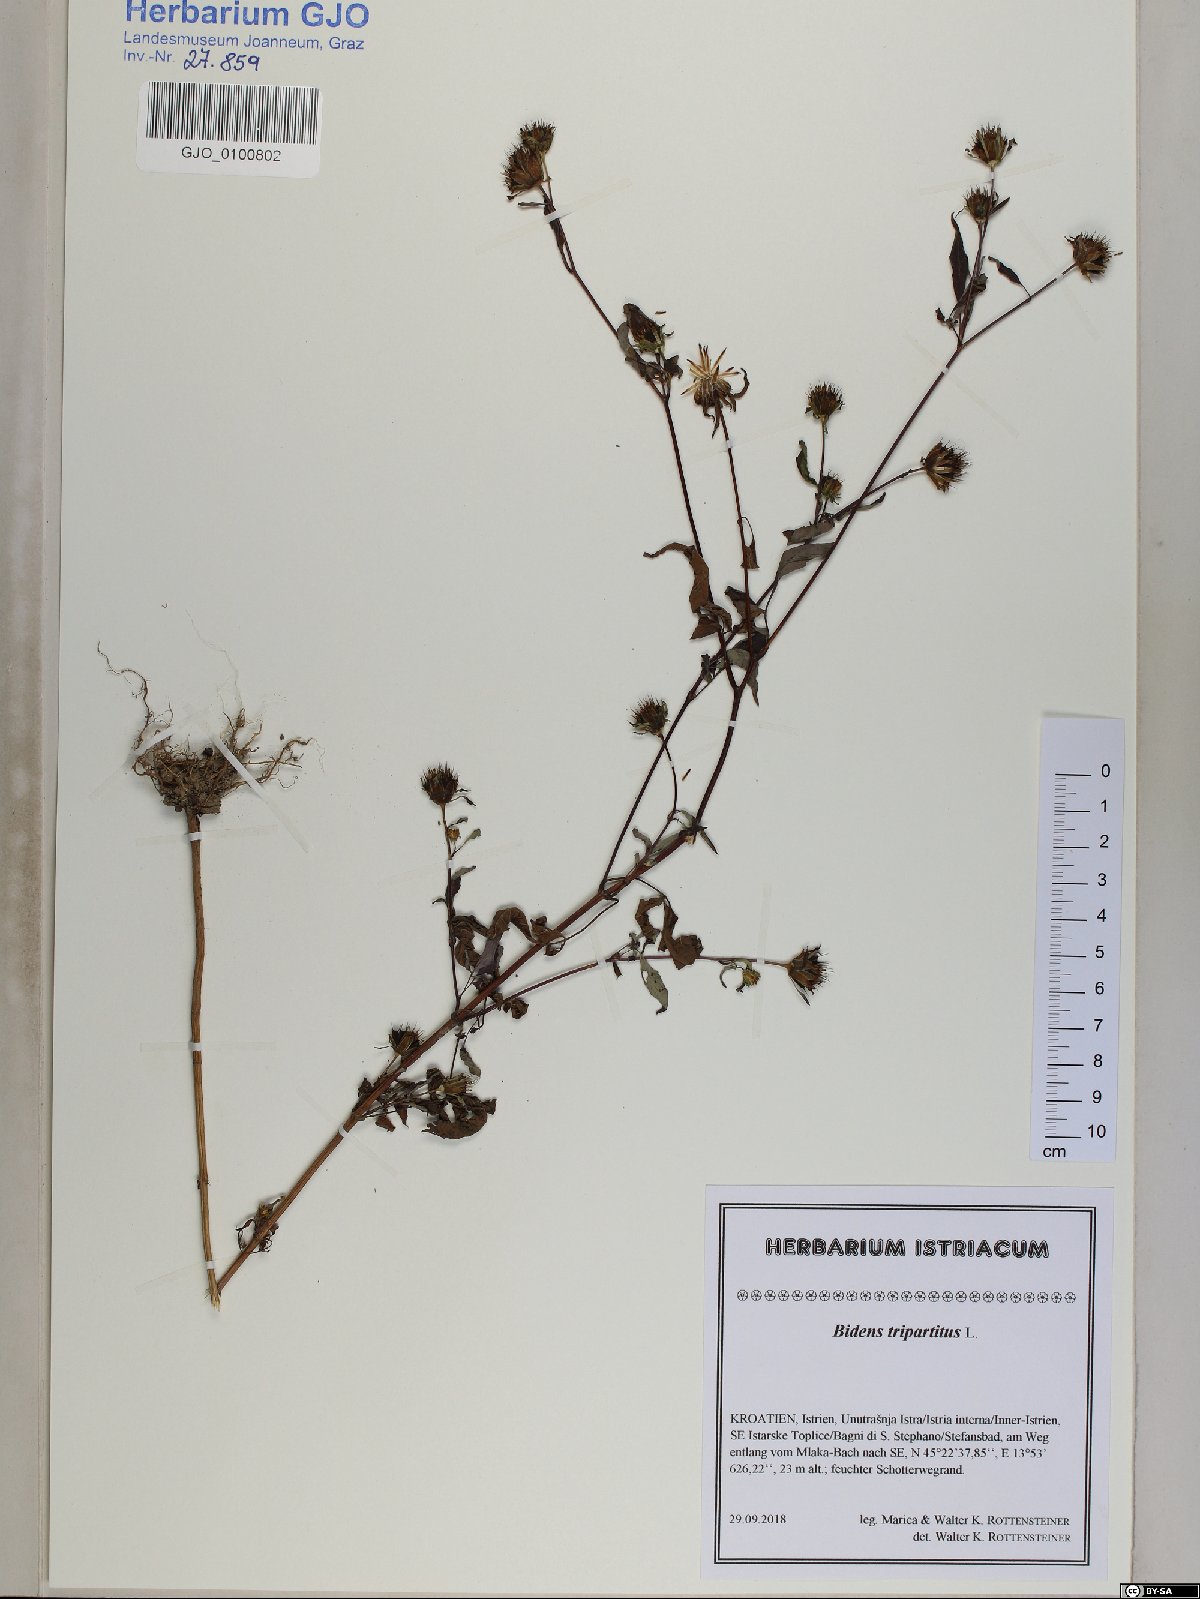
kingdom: Plantae
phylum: Tracheophyta
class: Magnoliopsida
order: Asterales
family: Asteraceae
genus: Bidens
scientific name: Bidens tripartita
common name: Trifid bur-marigold
